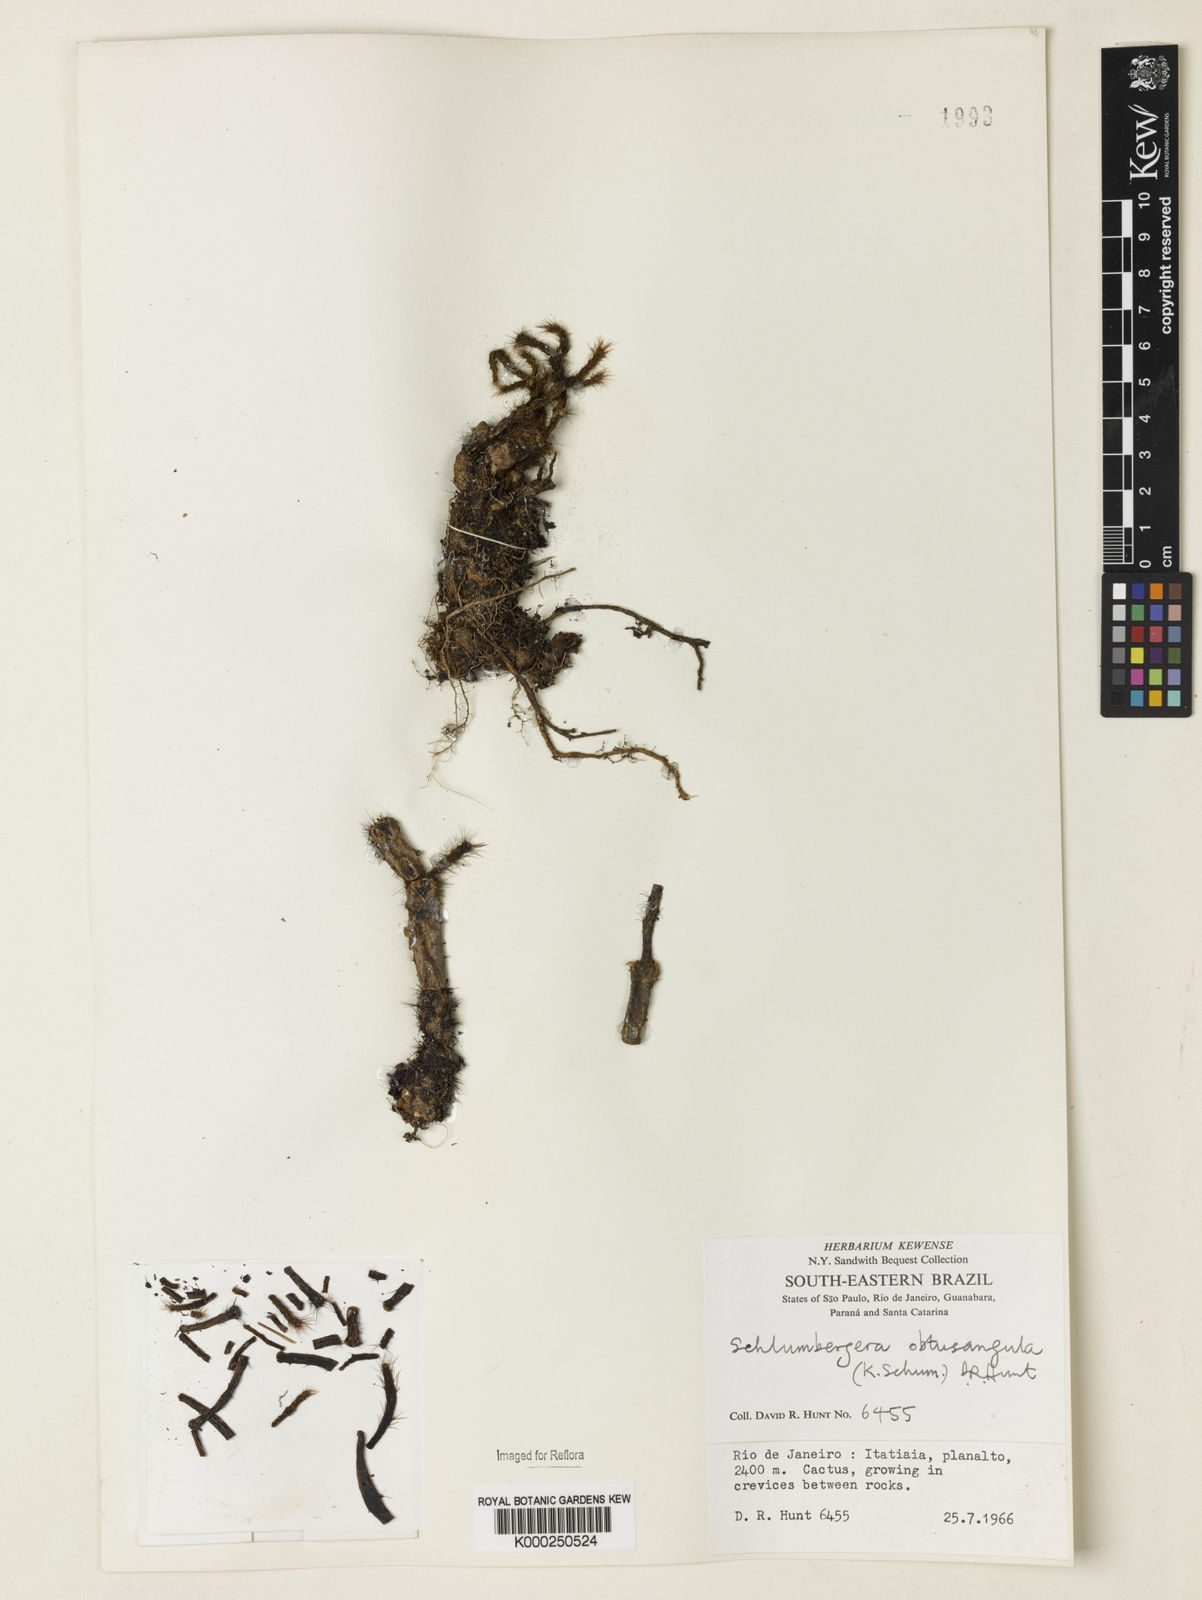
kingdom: Plantae
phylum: Tracheophyta
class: Magnoliopsida
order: Caryophyllales
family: Cactaceae
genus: Schlumbergera
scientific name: Schlumbergera
